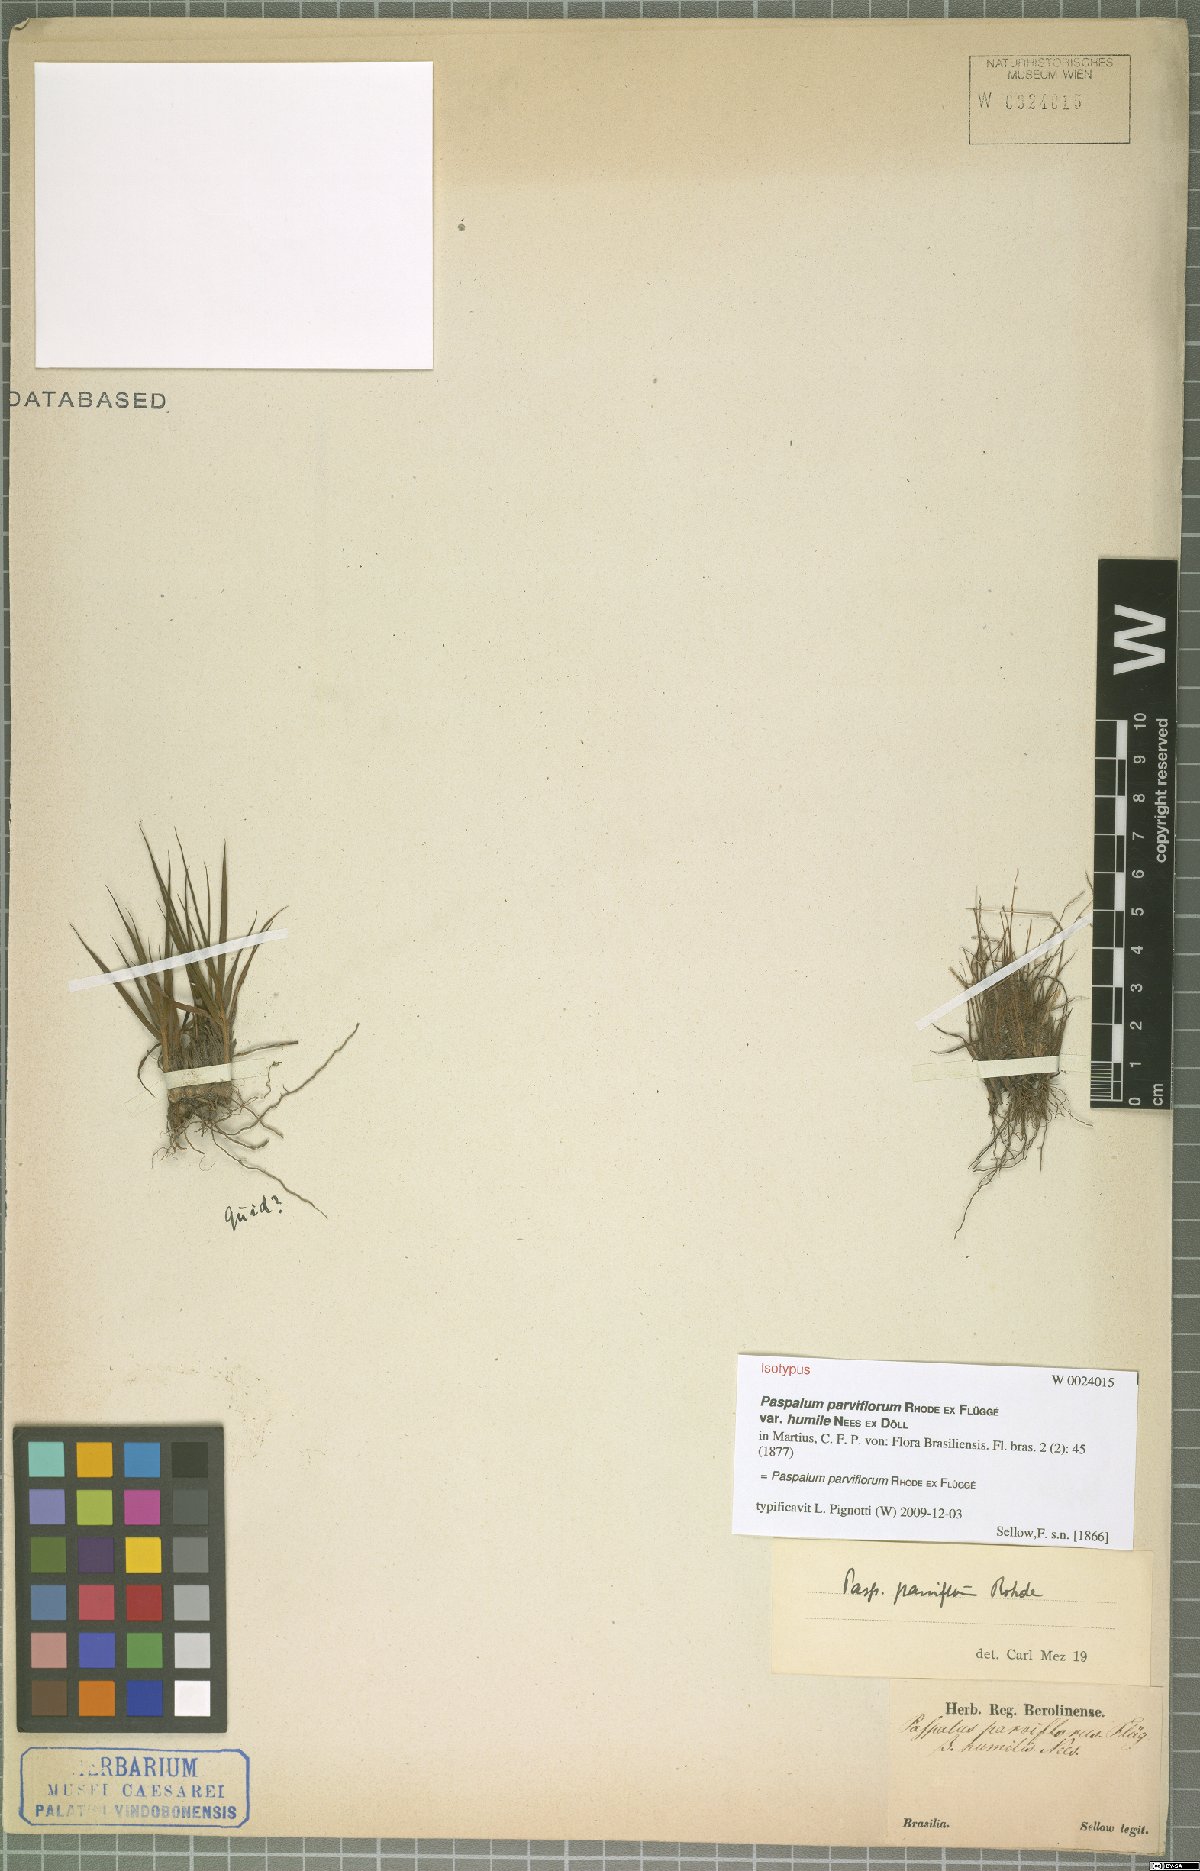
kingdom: Plantae
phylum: Tracheophyta
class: Liliopsida
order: Poales
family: Poaceae
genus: Paspalum
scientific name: Paspalum parviflorum
